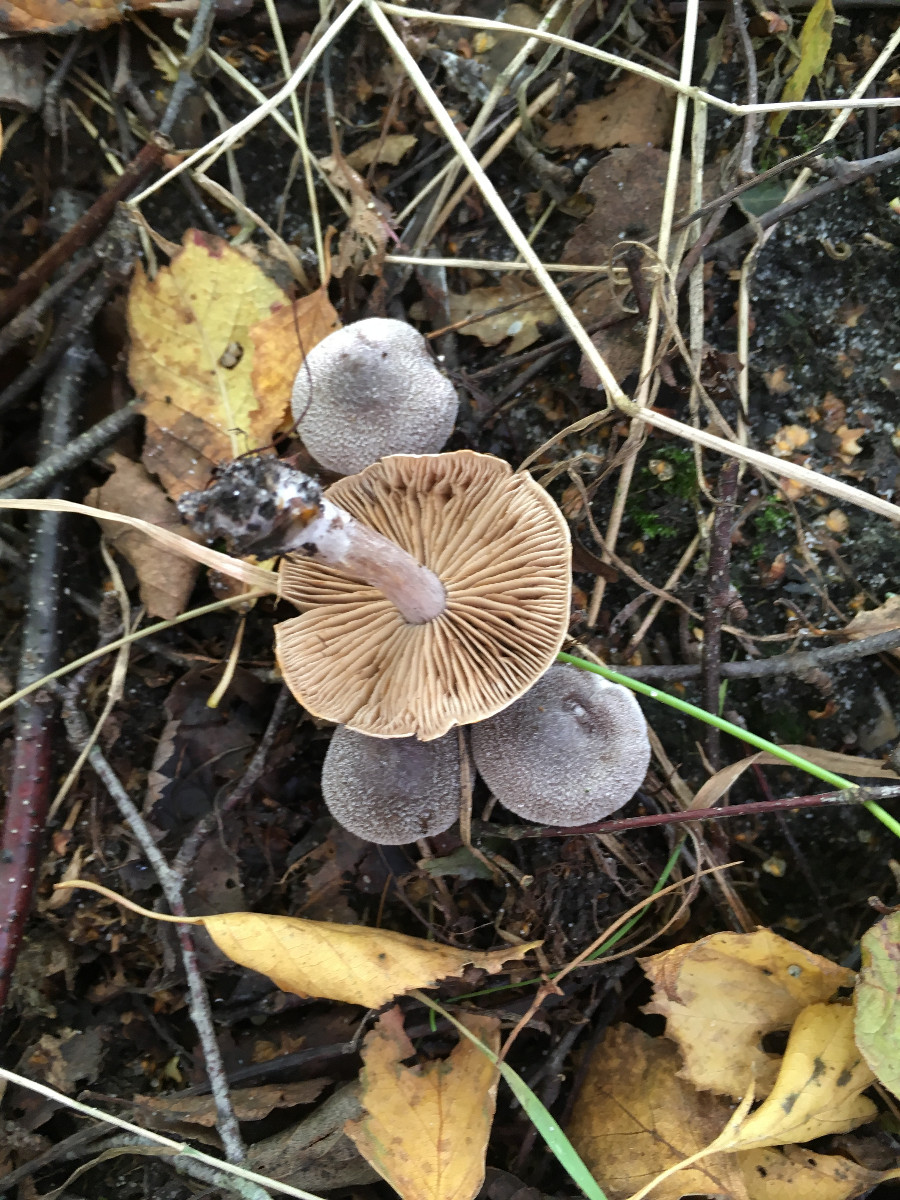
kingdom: Fungi
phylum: Basidiomycota
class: Agaricomycetes
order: Agaricales
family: Cortinariaceae
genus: Cortinarius
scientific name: Cortinarius hemitrichus
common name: hvidfnugget slørhat
